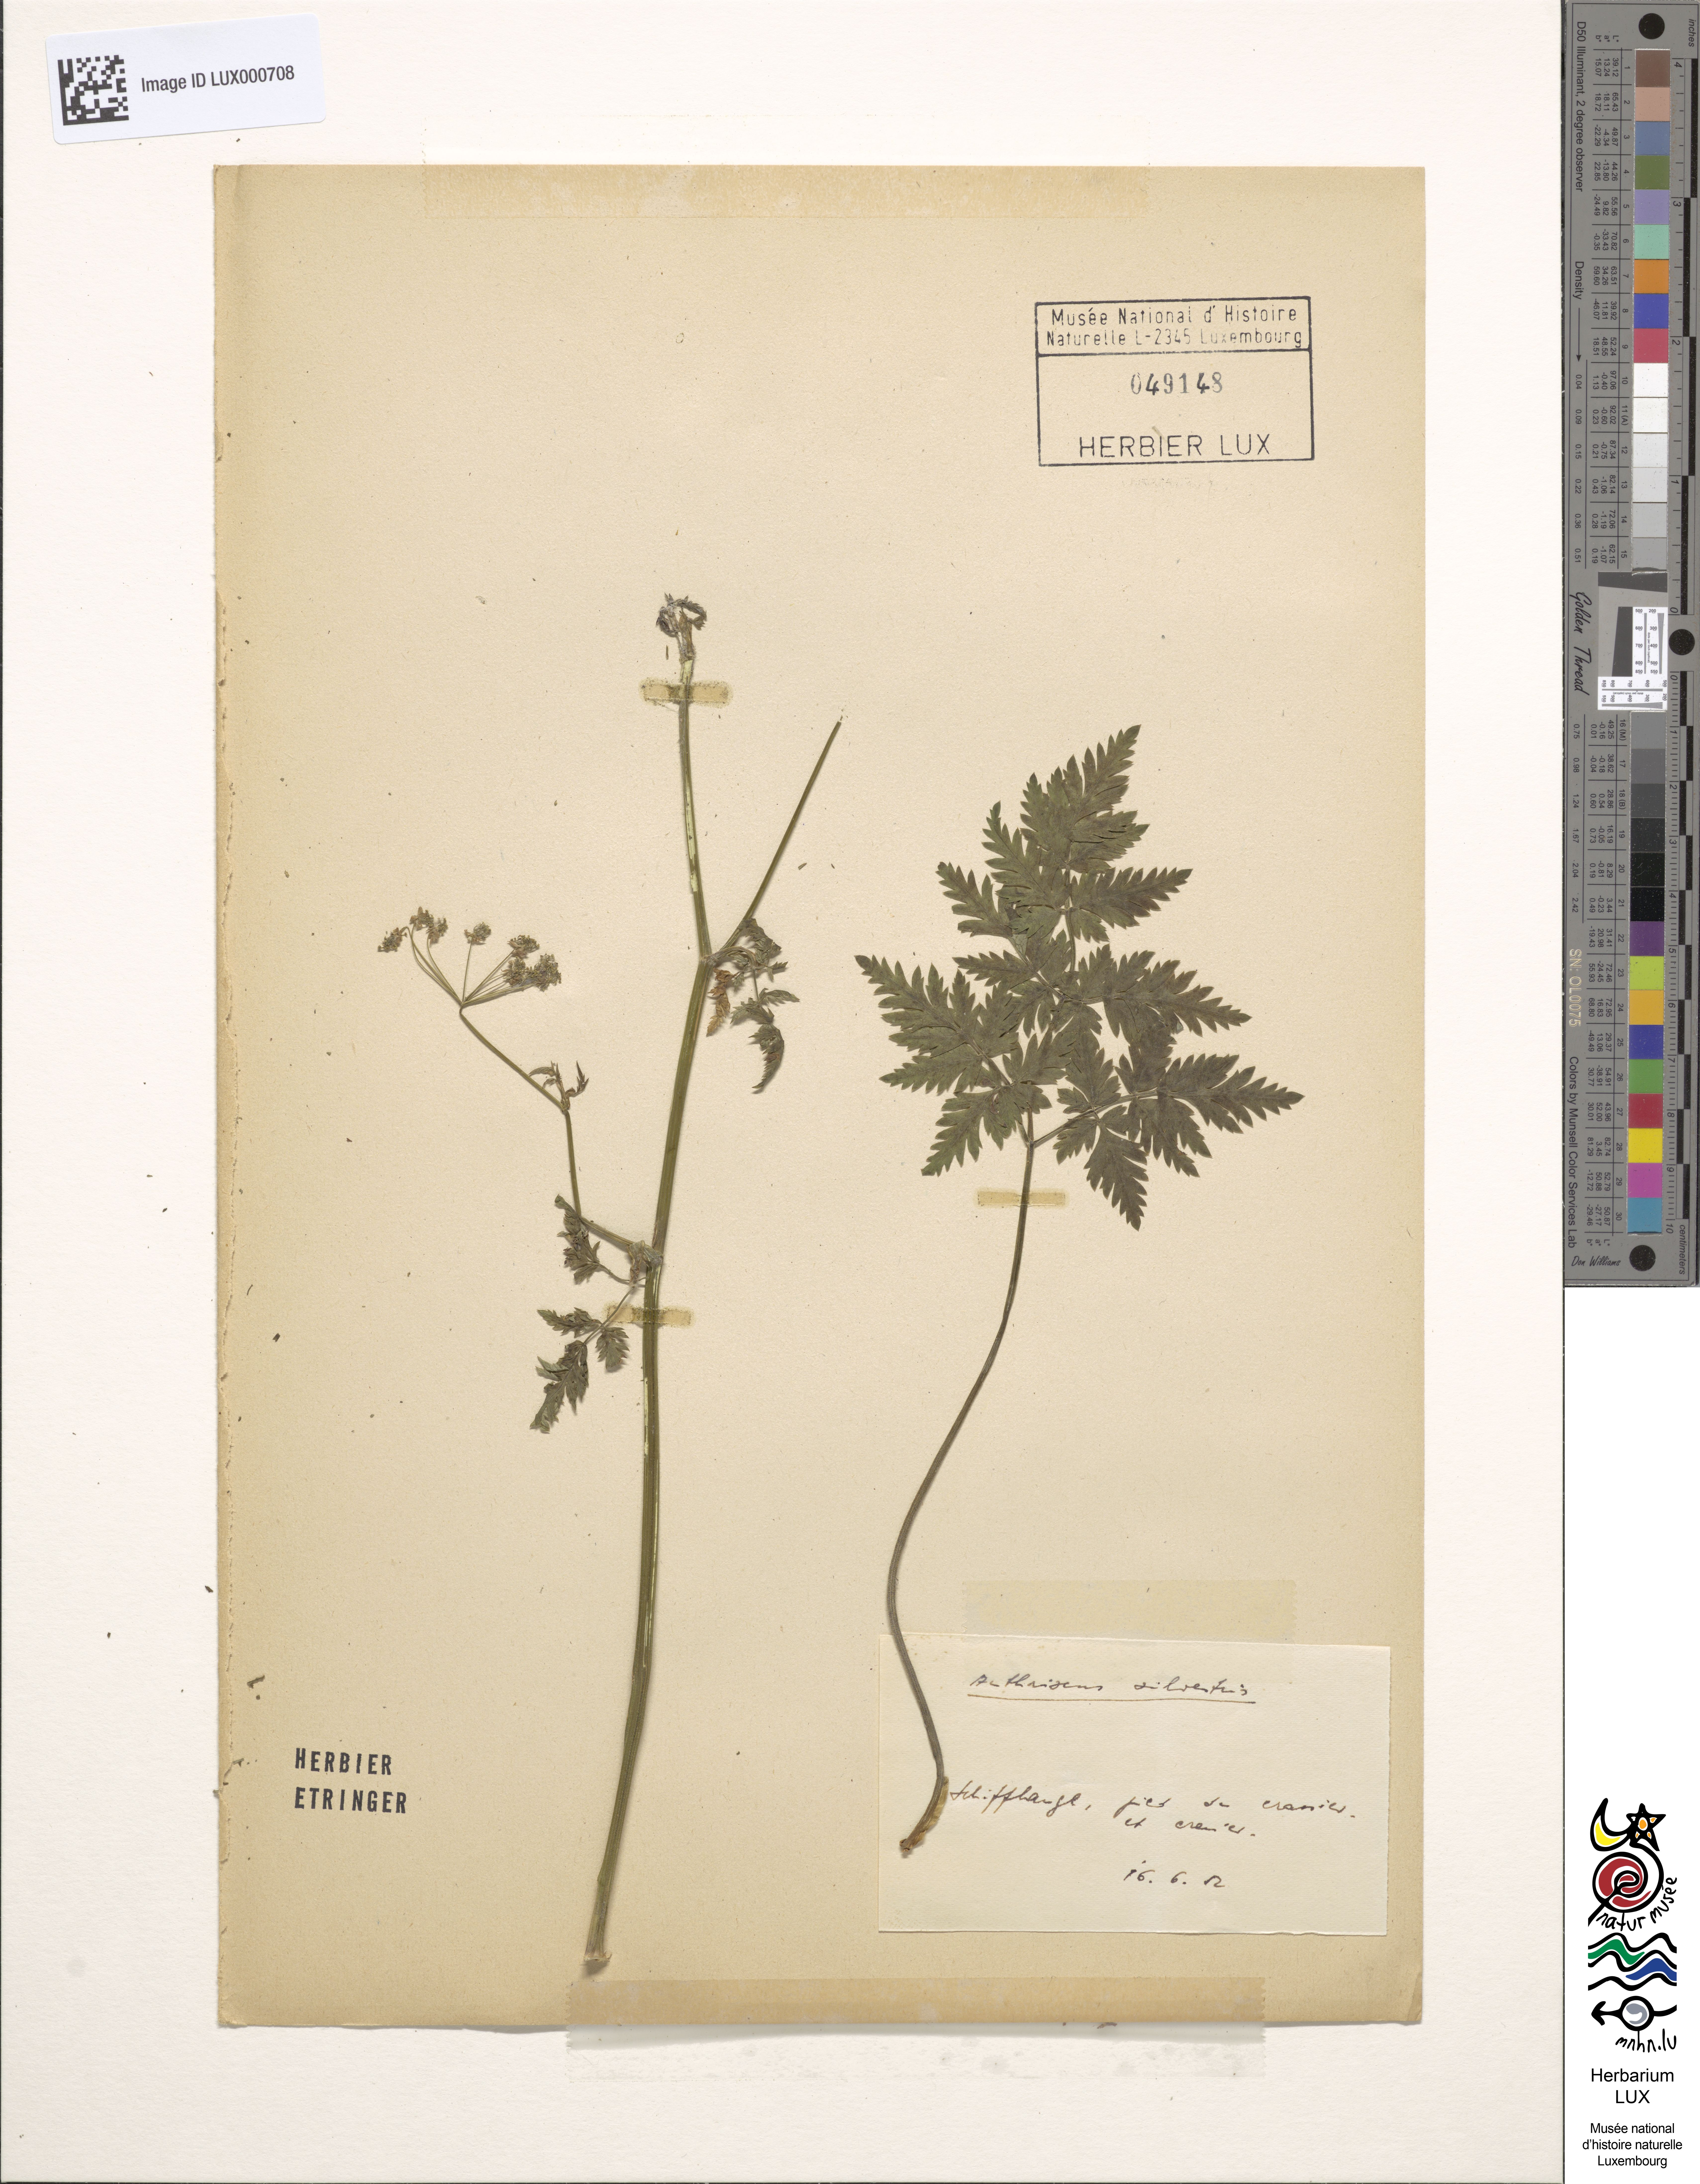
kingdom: Plantae
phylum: Tracheophyta
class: Magnoliopsida
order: Apiales
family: Apiaceae
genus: Anthriscus
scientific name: Anthriscus sylvestris
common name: Cow parsley
